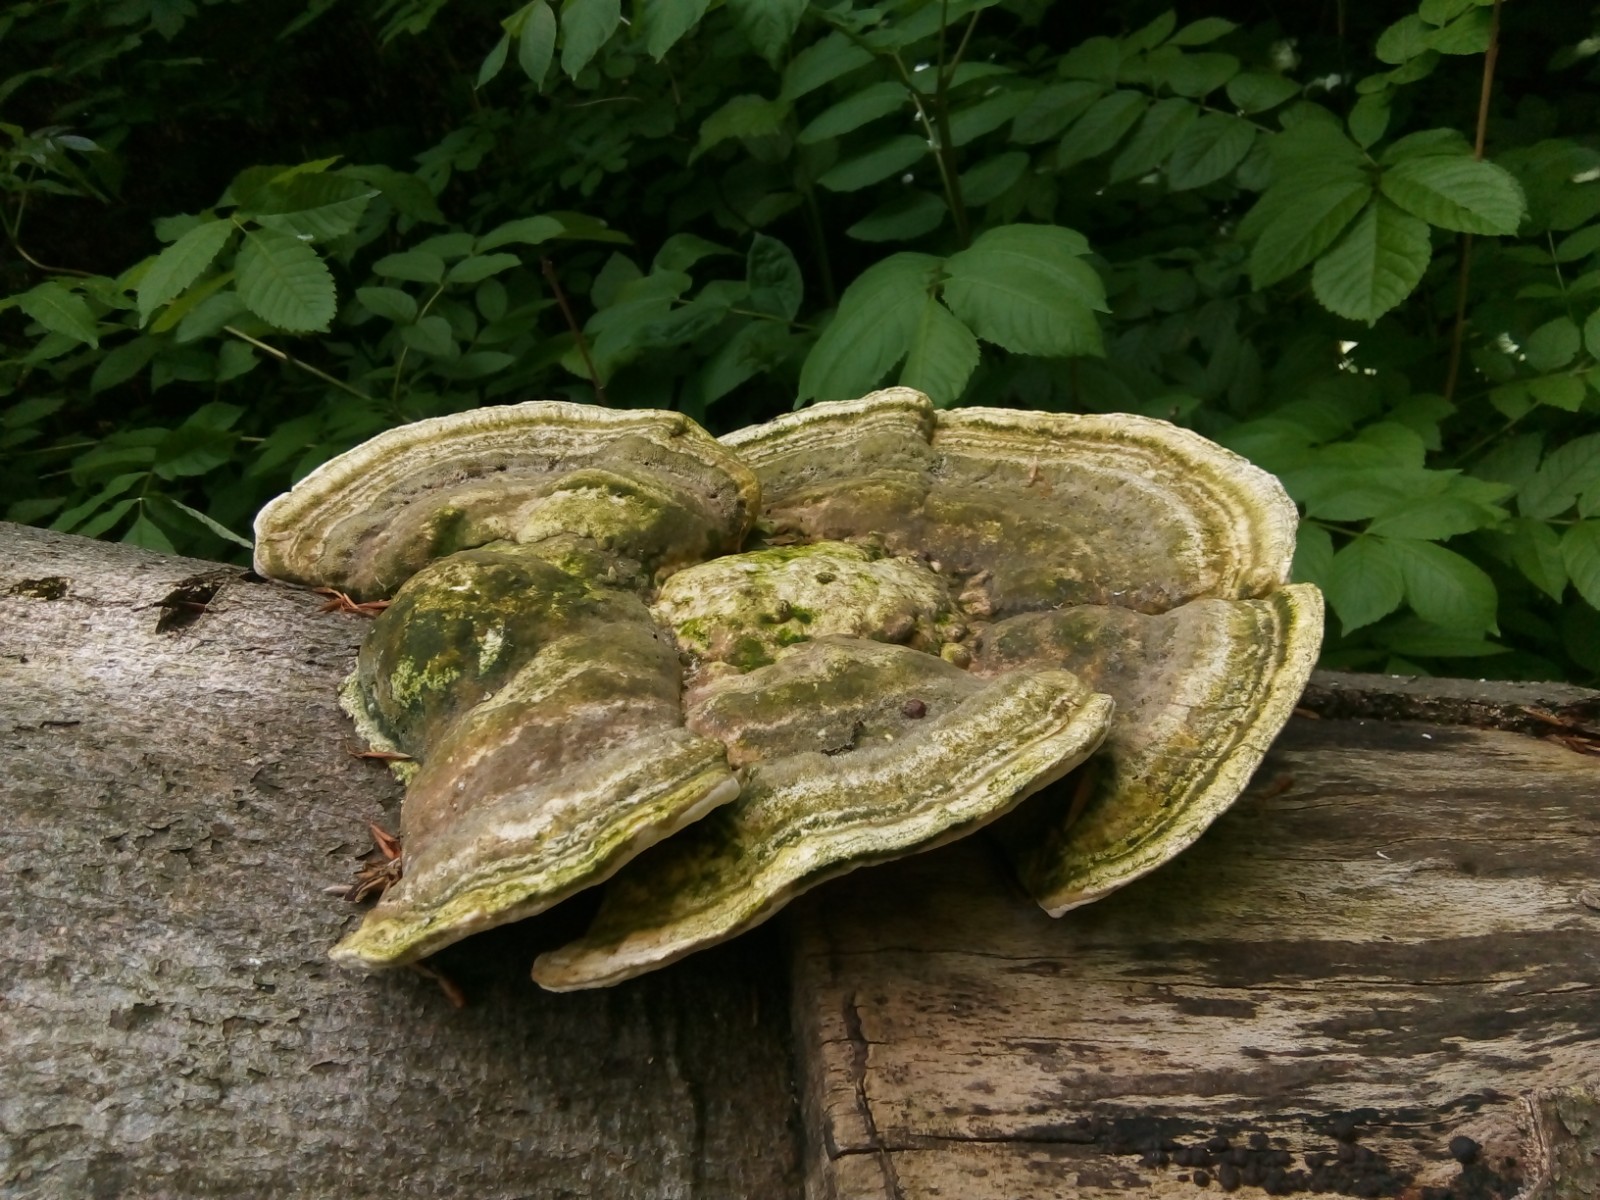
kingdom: Fungi
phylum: Basidiomycota
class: Agaricomycetes
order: Polyporales
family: Polyporaceae
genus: Trametes
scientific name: Trametes gibbosa
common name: puklet læderporesvamp
